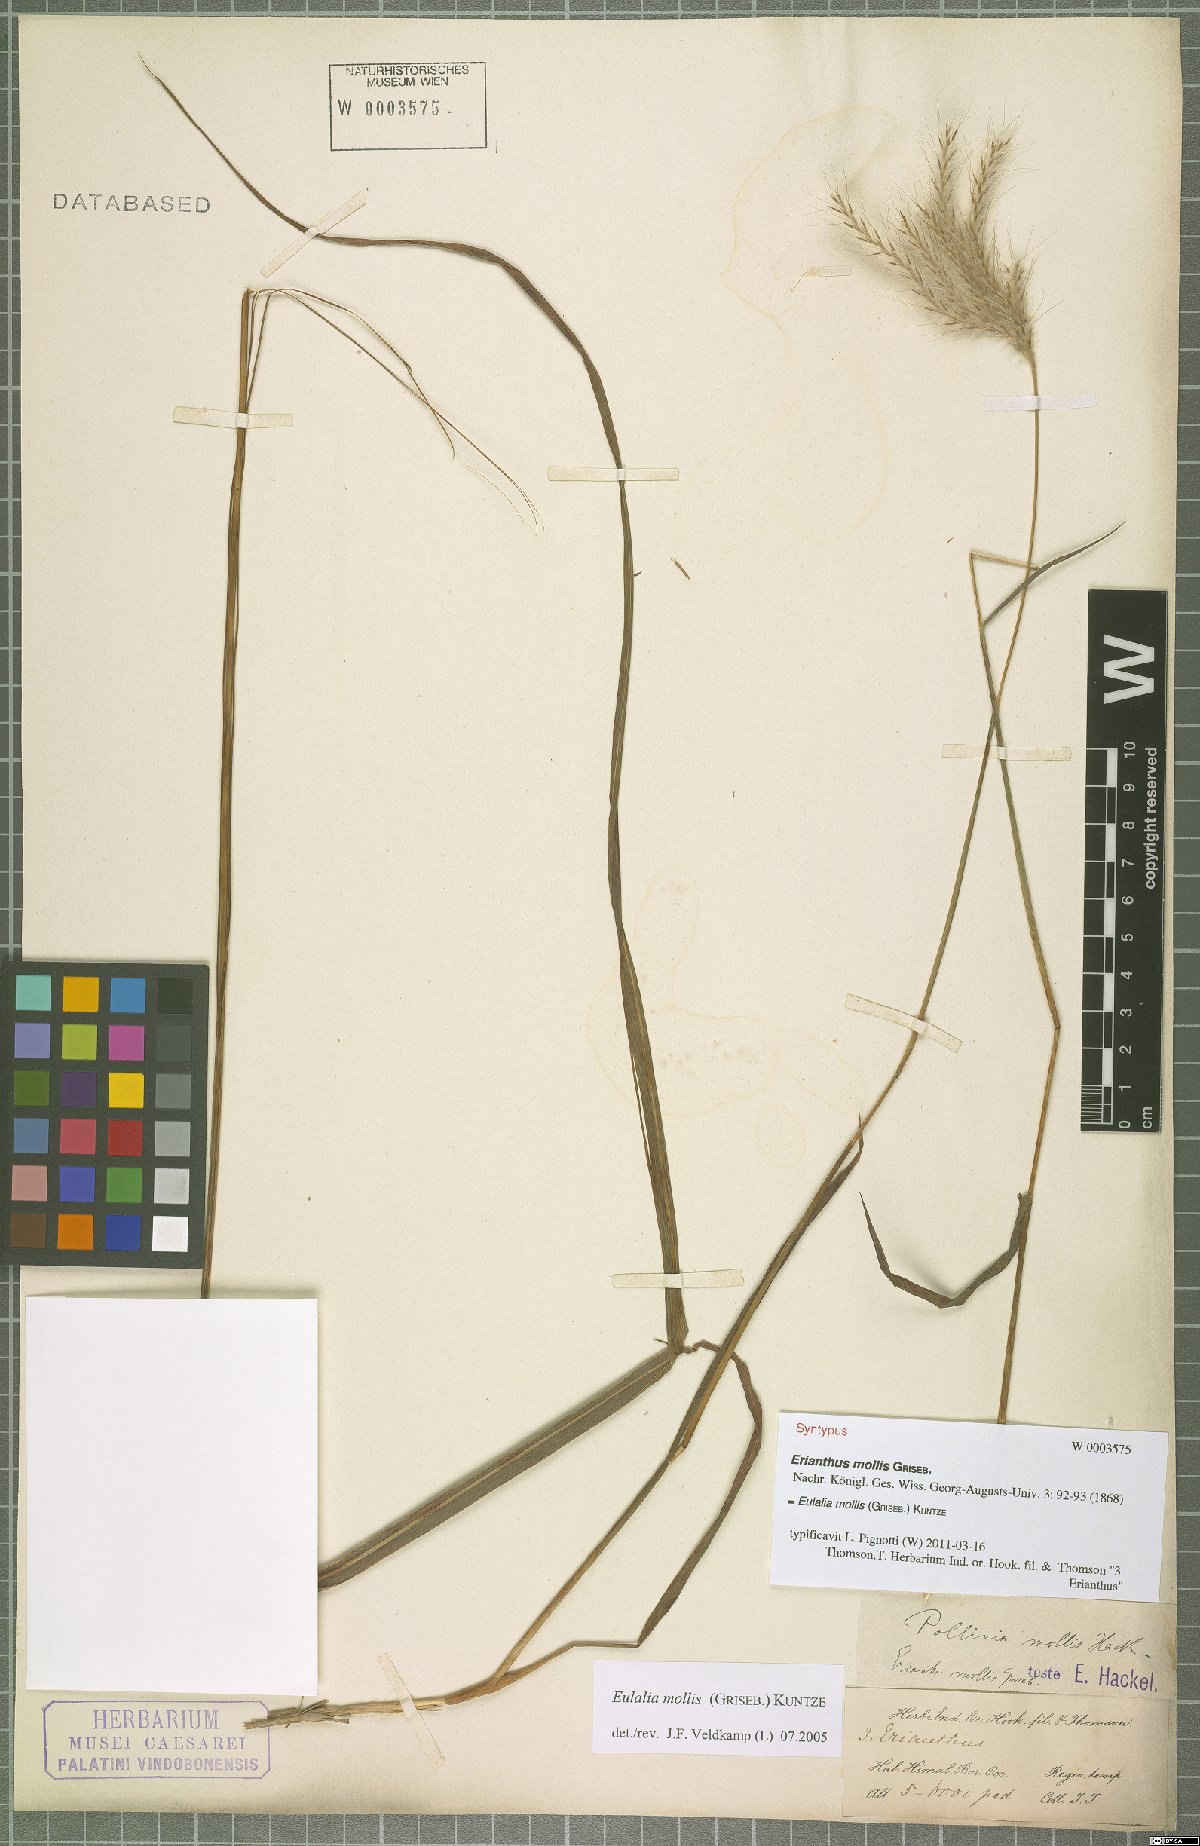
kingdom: Plantae
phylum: Tracheophyta
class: Liliopsida
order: Poales
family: Poaceae
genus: Eulalia
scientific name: Eulalia mollis
